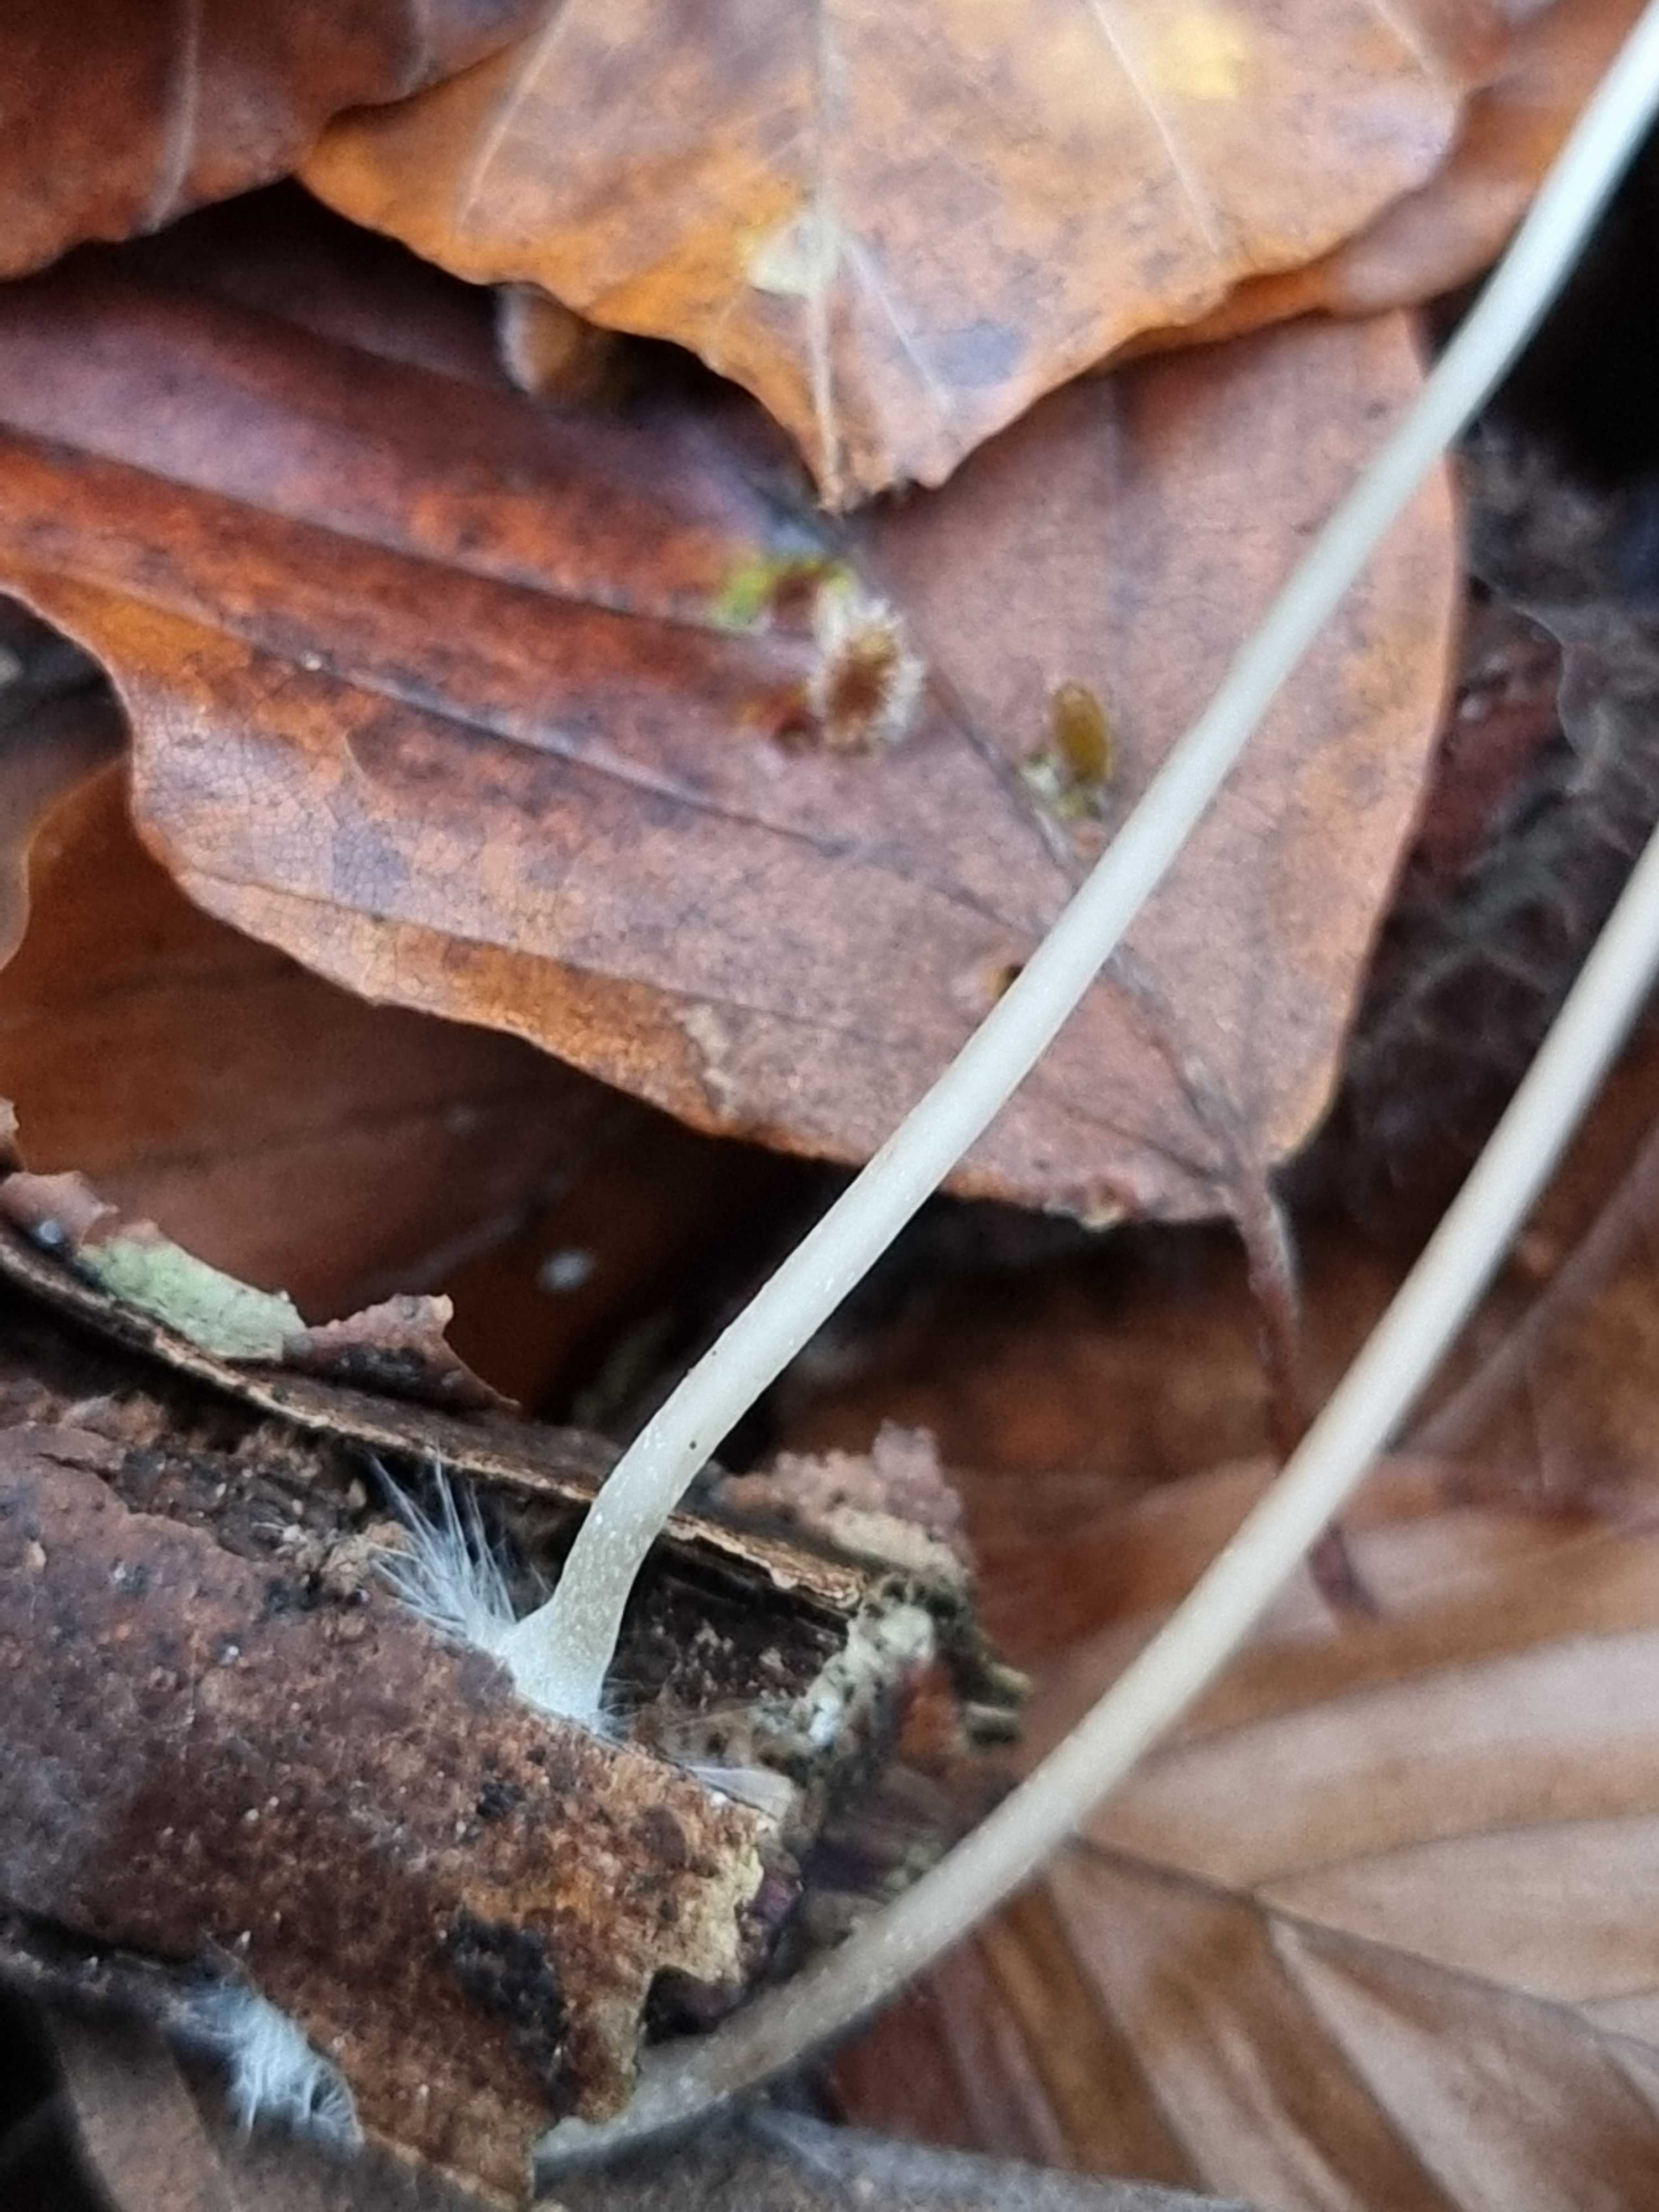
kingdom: Fungi
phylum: Basidiomycota
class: Agaricomycetes
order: Agaricales
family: Mycenaceae
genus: Mycena
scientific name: Mycena filopes
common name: jod-huesvamp
